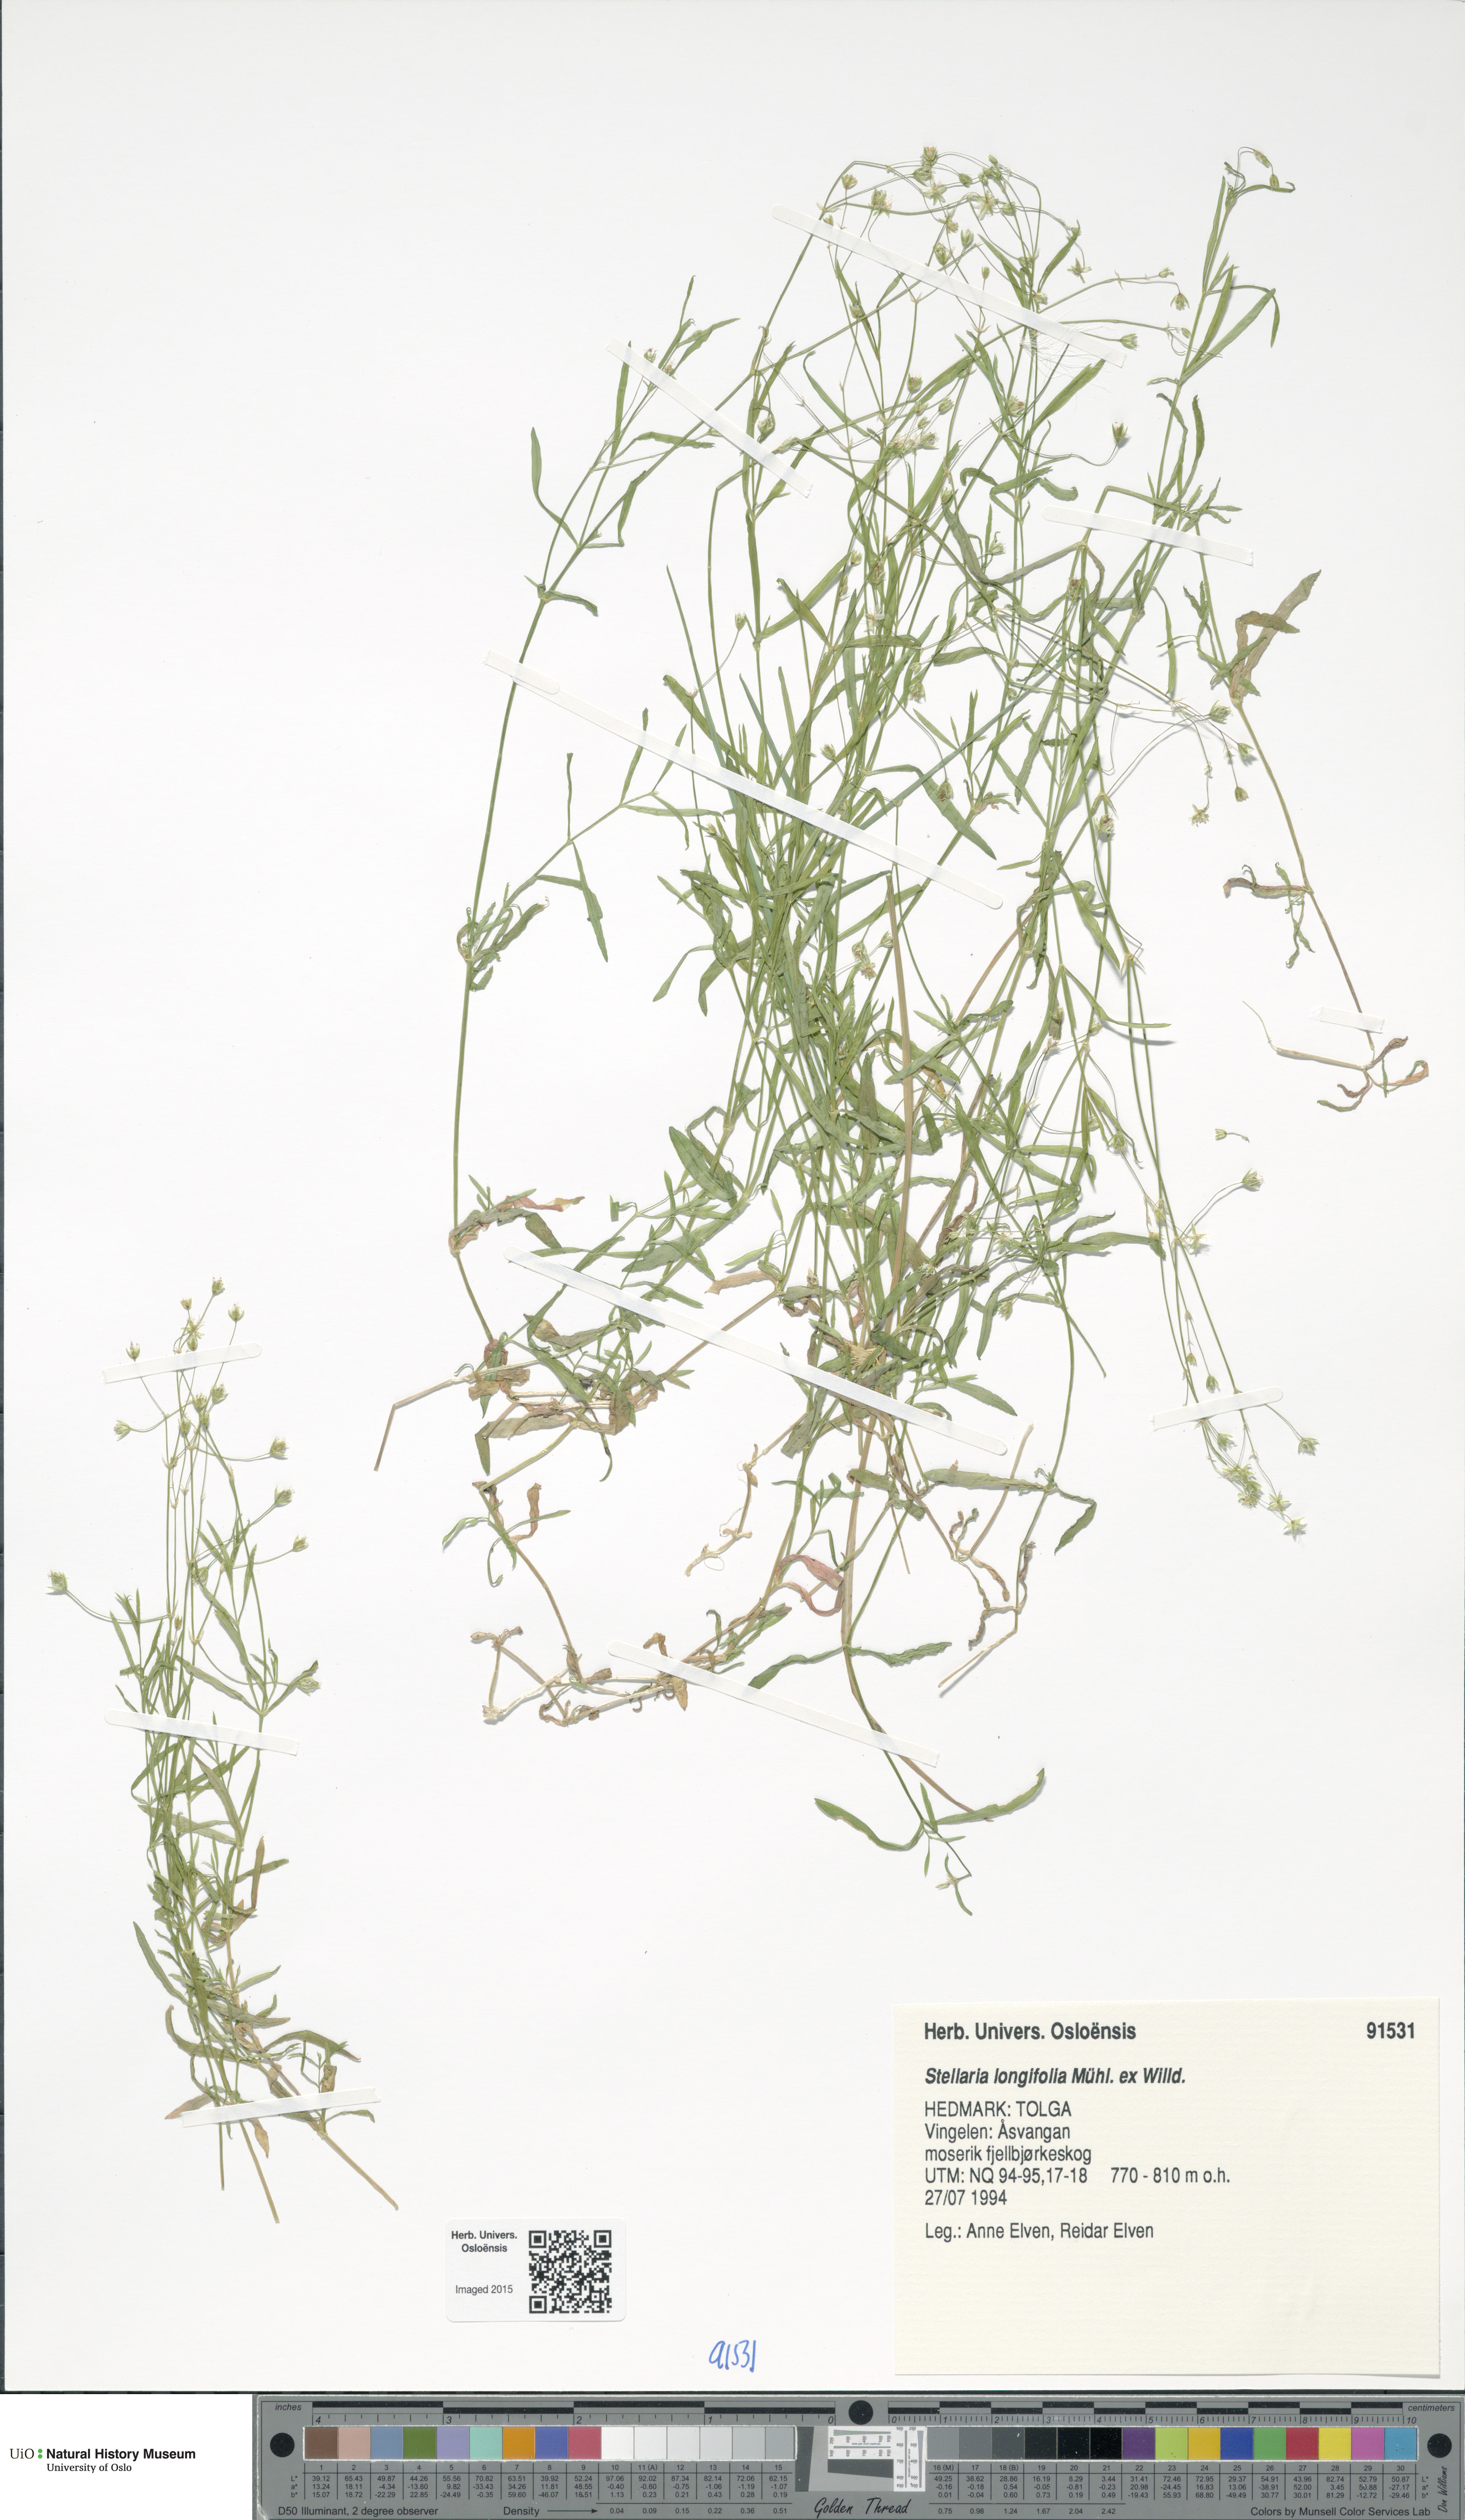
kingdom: Plantae
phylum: Tracheophyta
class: Magnoliopsida
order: Caryophyllales
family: Caryophyllaceae
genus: Stellaria
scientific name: Stellaria longifolia
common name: Long-leaved chickweed
